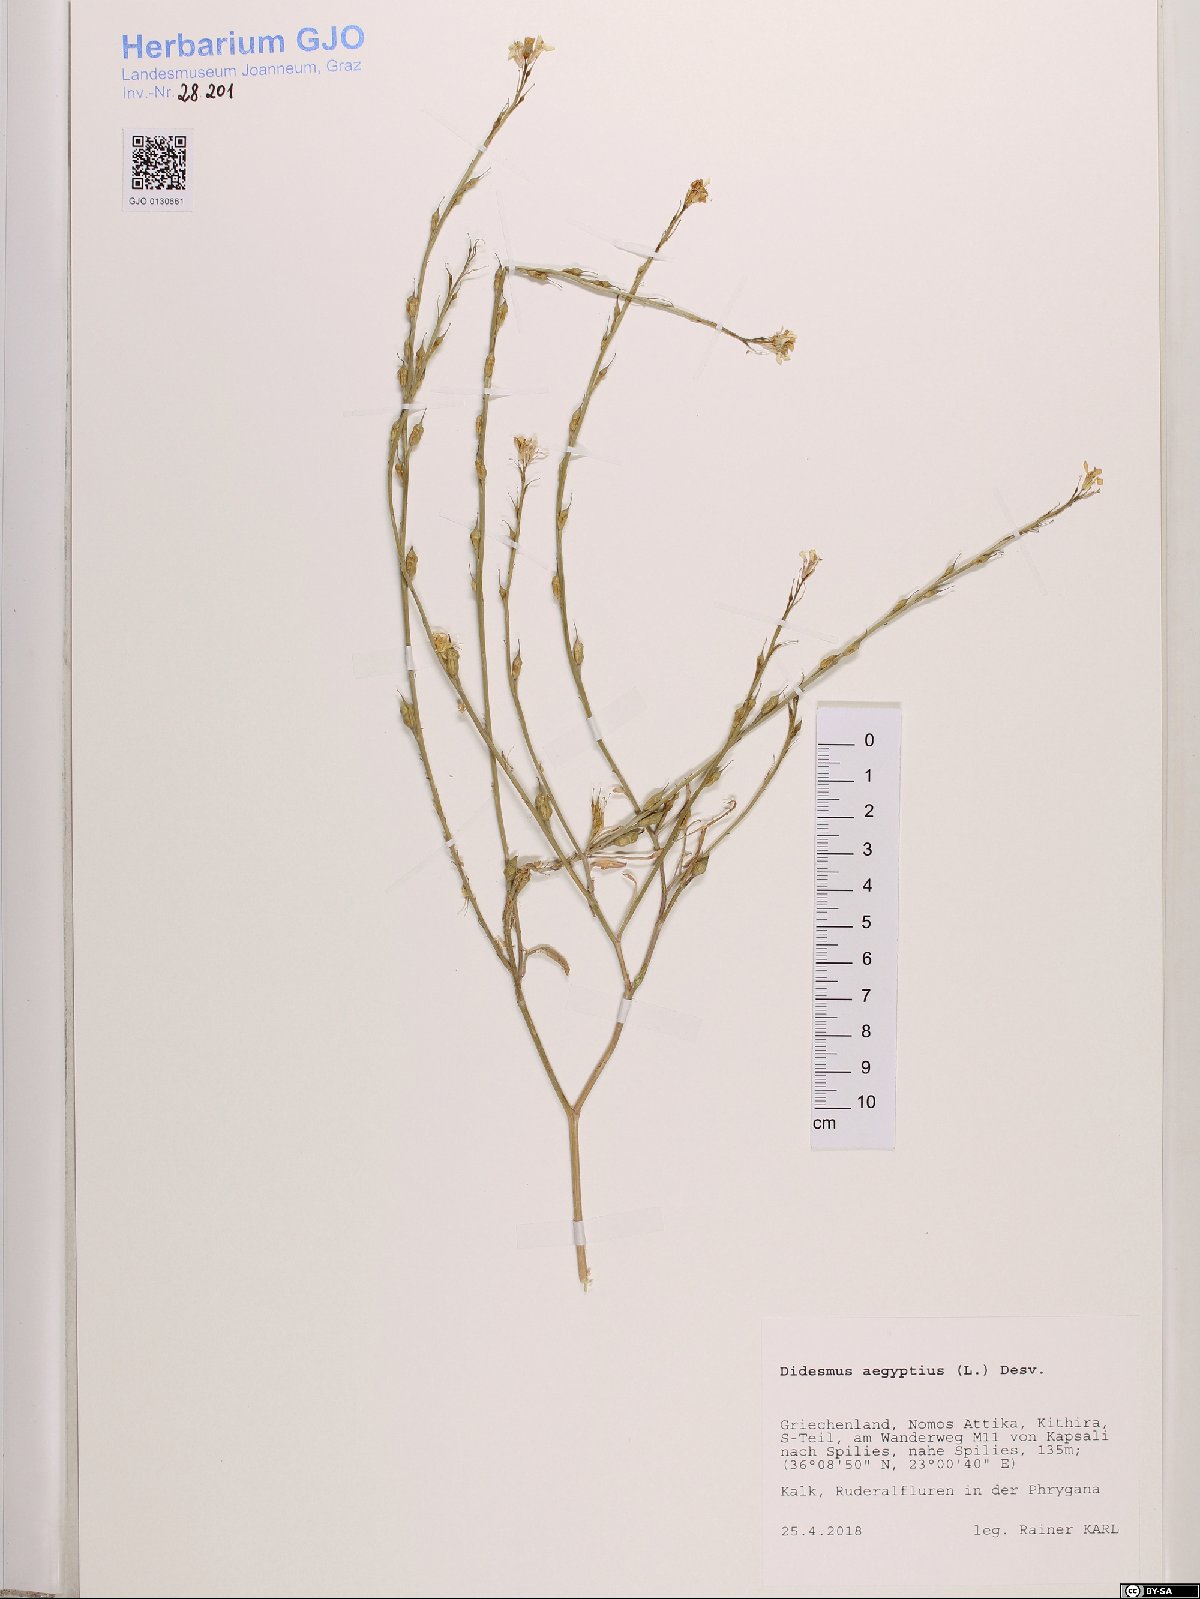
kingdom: Plantae
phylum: Tracheophyta
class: Magnoliopsida
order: Brassicales
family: Brassicaceae
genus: Didesmus
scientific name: Didesmus aegyptius
